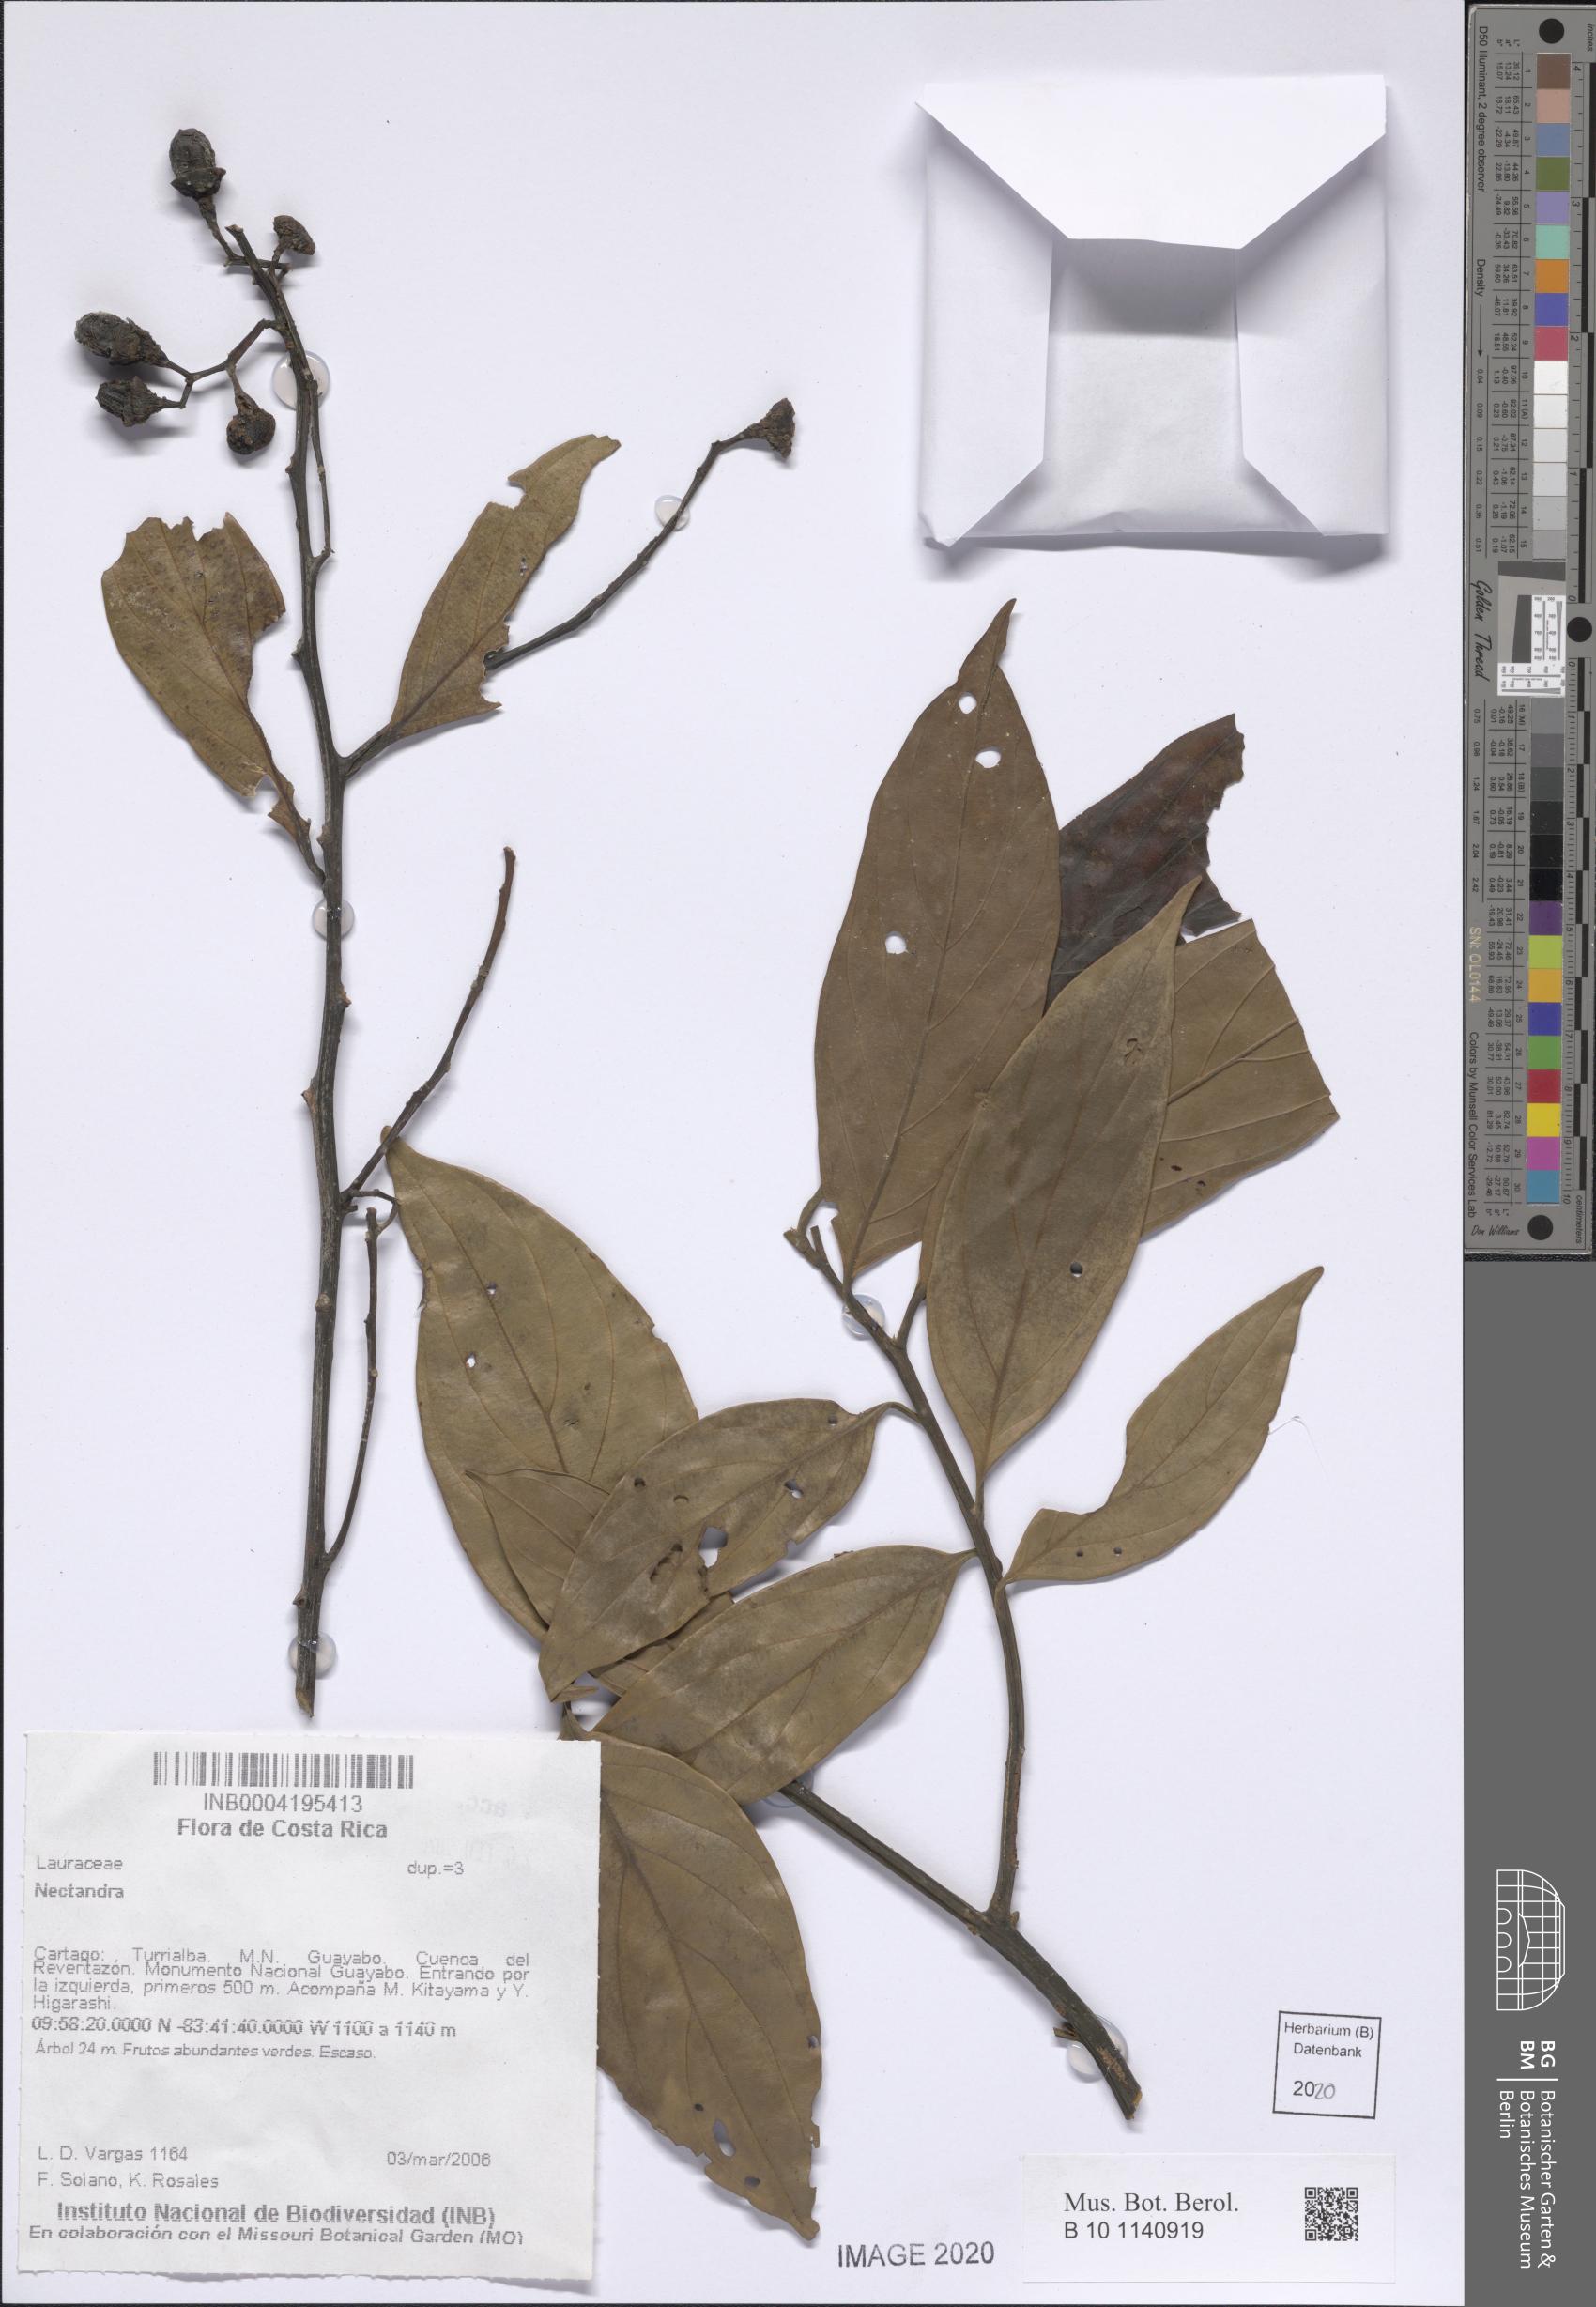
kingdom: Plantae
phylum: Tracheophyta
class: Magnoliopsida
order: Laurales
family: Lauraceae
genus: Nectandra
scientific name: Nectandra
